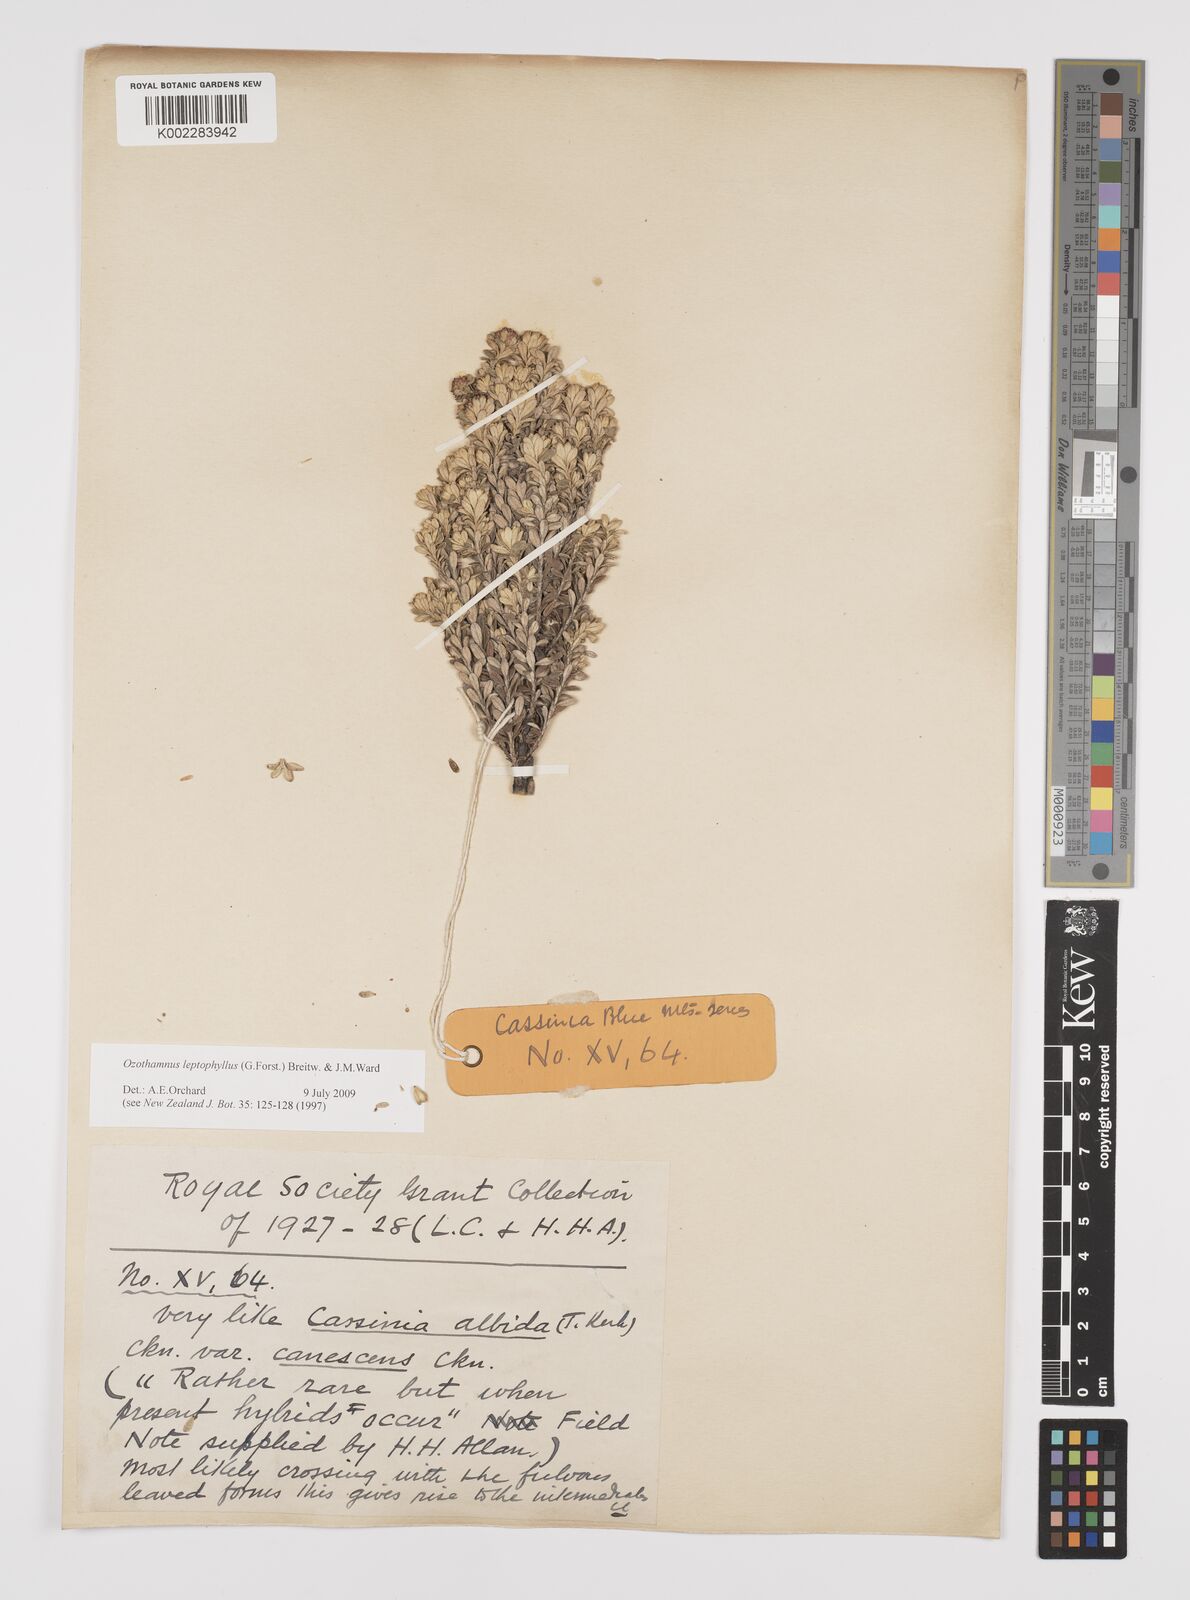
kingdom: Plantae
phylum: Tracheophyta
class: Magnoliopsida
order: Asterales
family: Asteraceae
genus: Ozothamnus
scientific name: Ozothamnus leptophyllus
